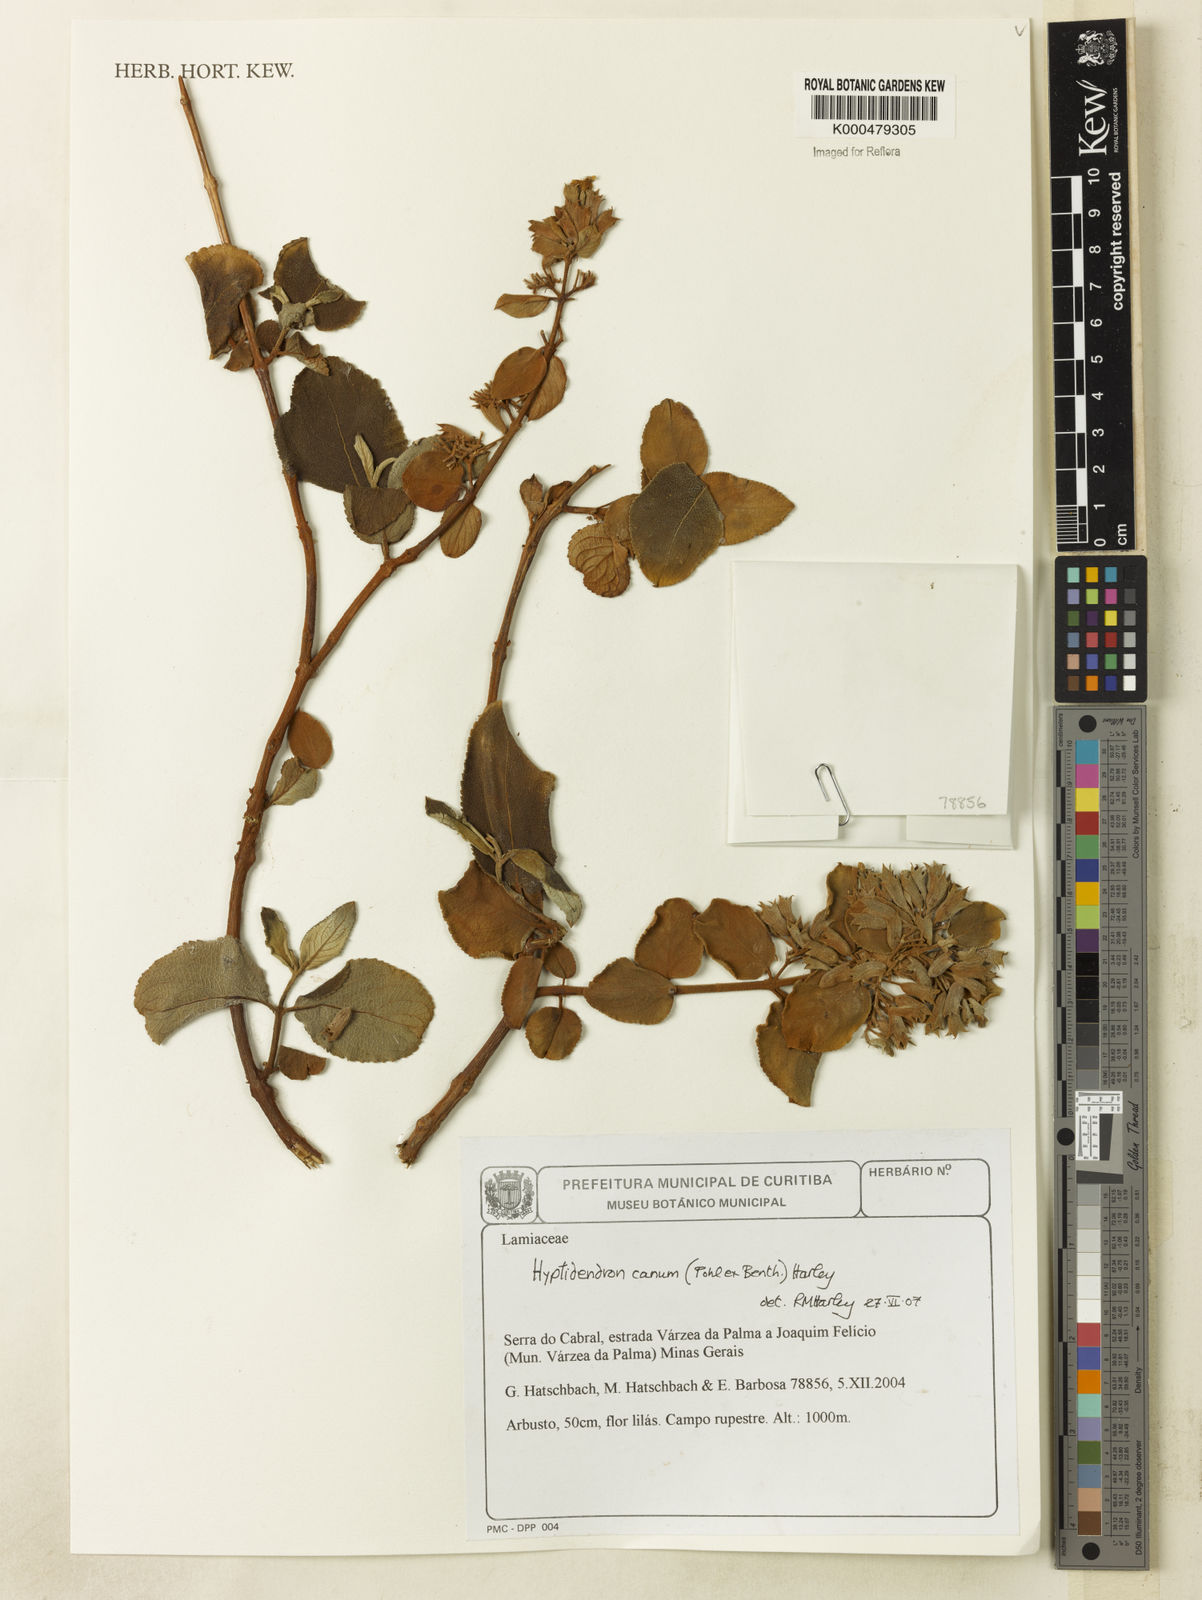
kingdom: Plantae
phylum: Tracheophyta
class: Magnoliopsida
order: Lamiales
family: Lamiaceae
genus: Hyptidendron
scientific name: Hyptidendron canum
